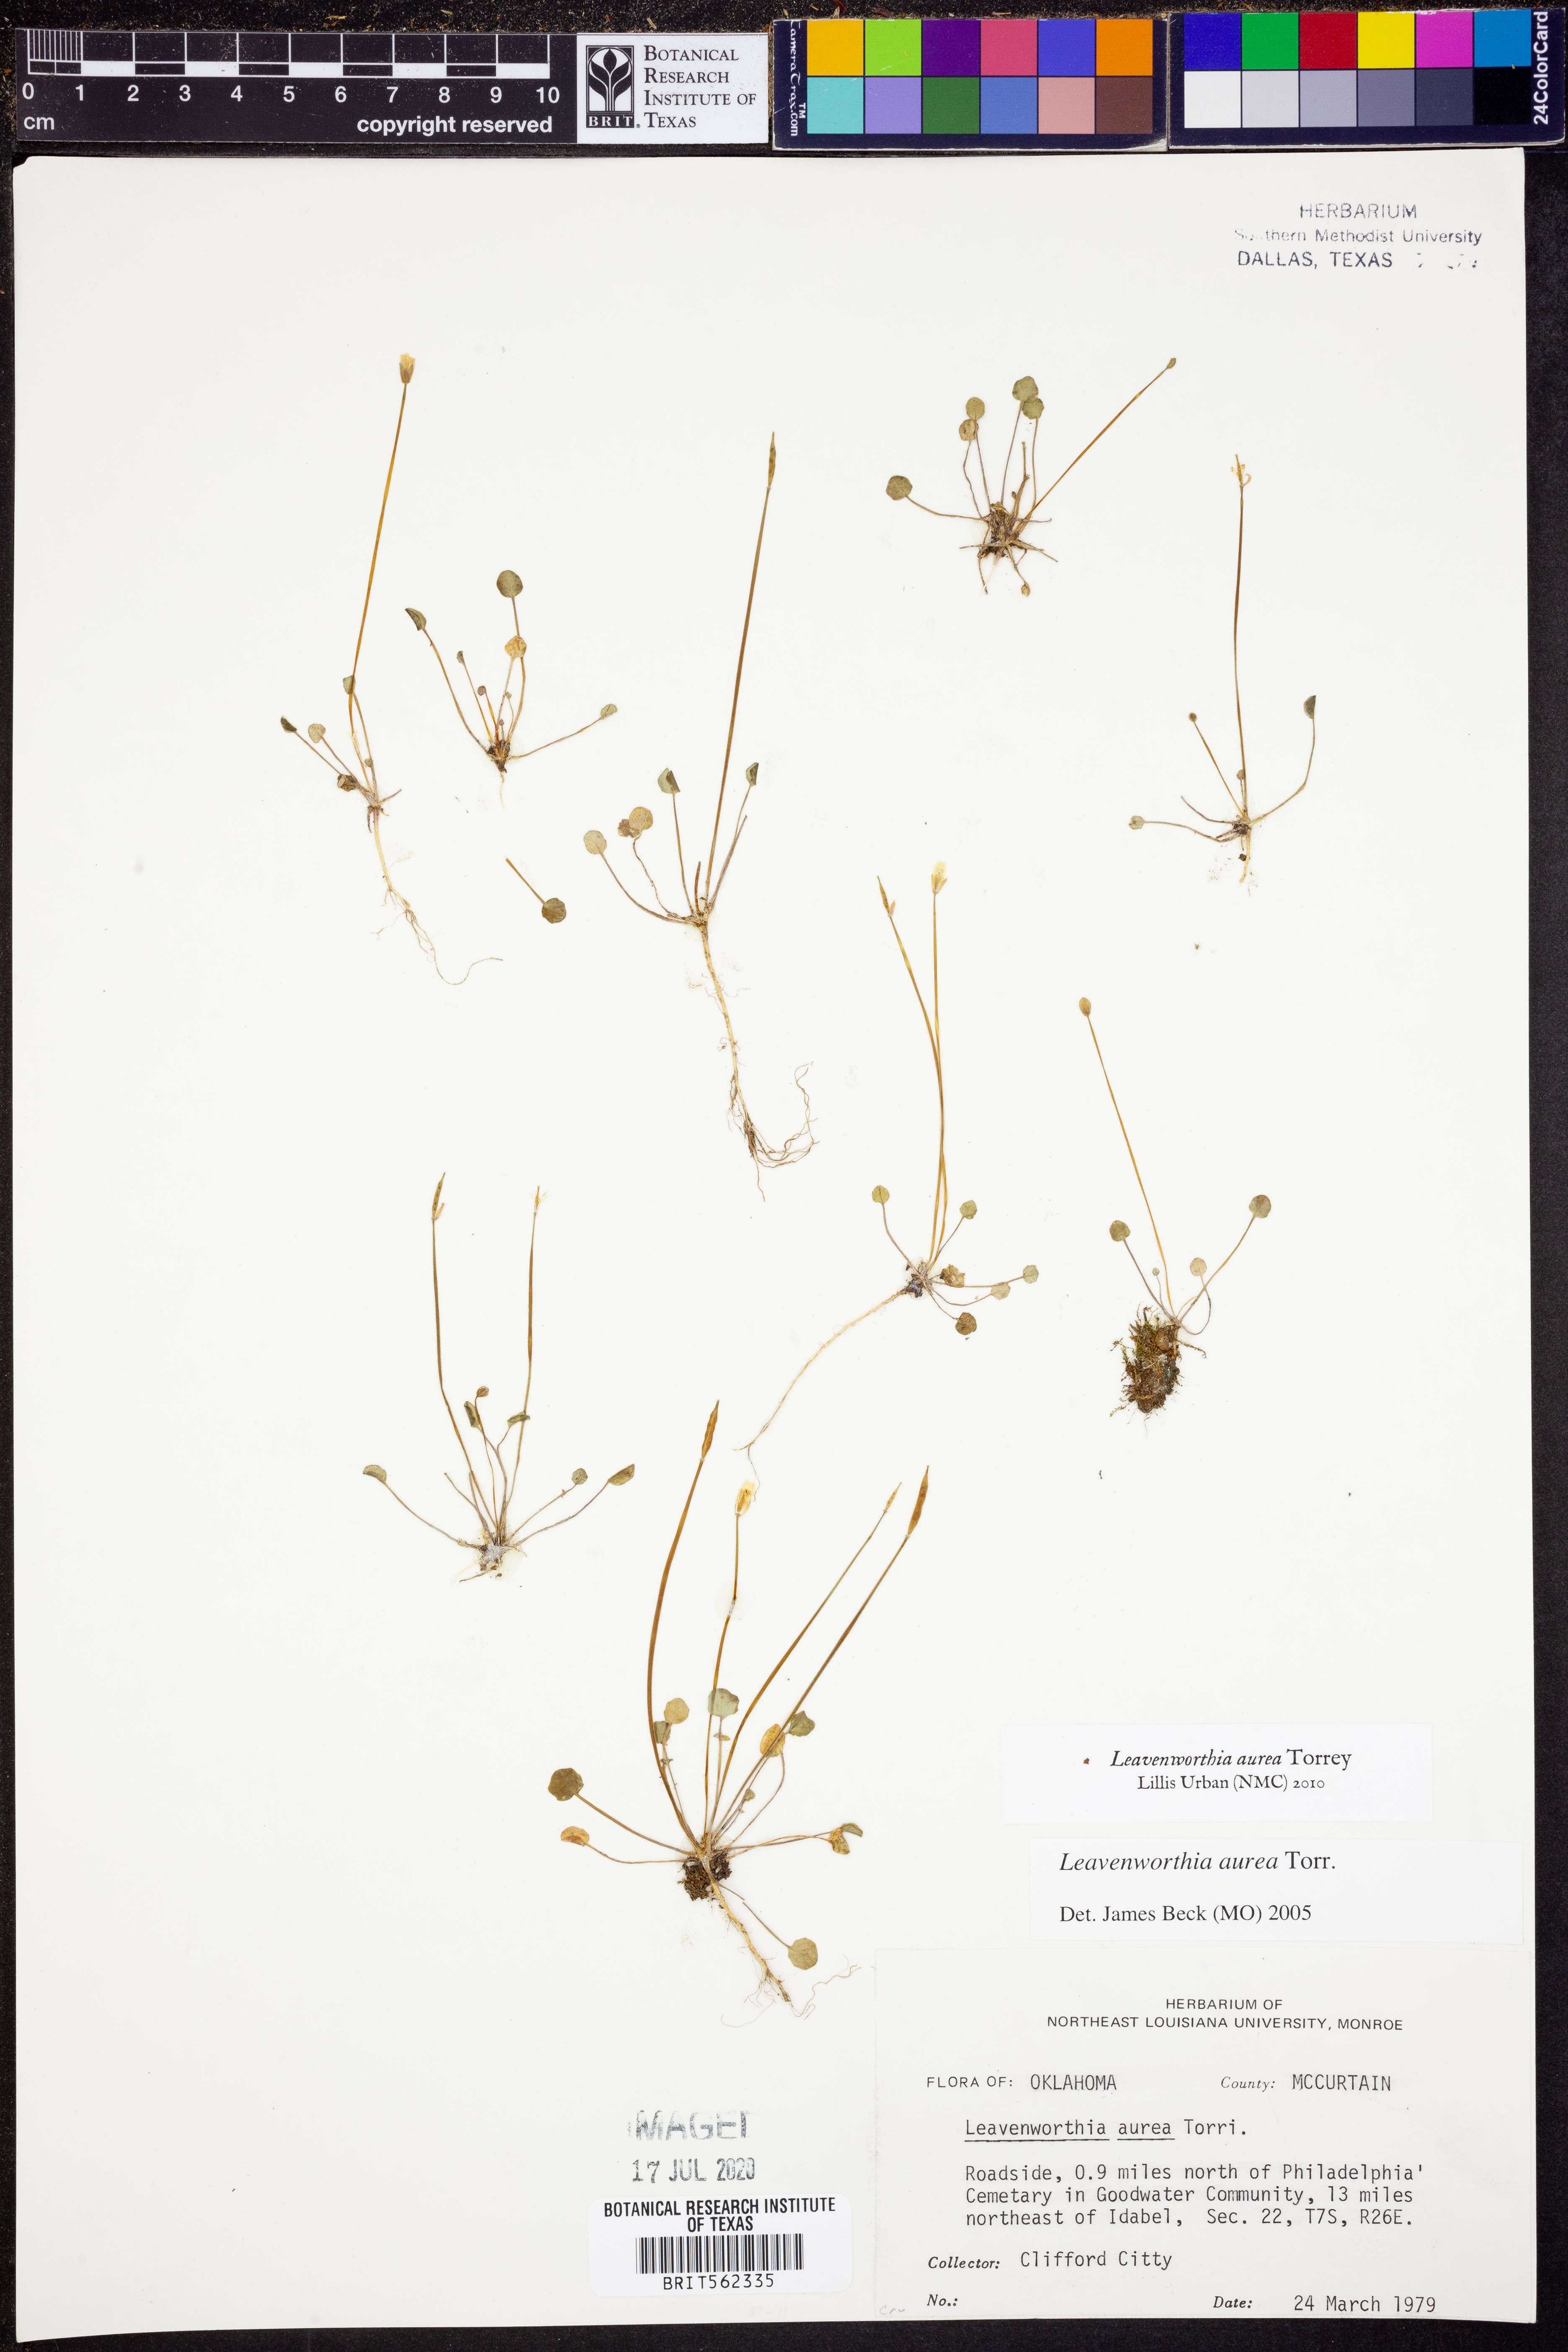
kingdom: Plantae
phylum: Tracheophyta
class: Magnoliopsida
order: Brassicales
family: Brassicaceae
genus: Leavenworthia
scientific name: Leavenworthia aurea
